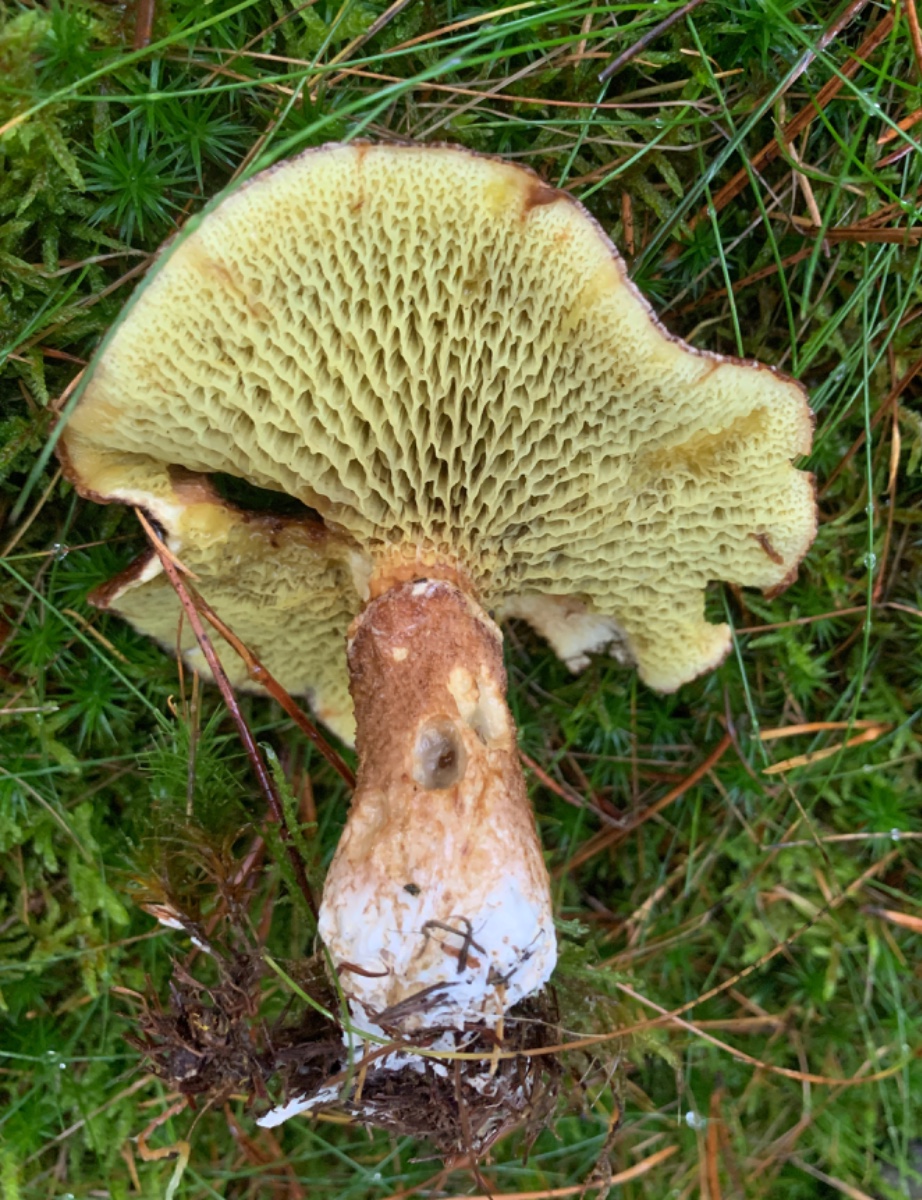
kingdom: Fungi
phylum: Basidiomycota
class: Agaricomycetes
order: Boletales
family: Suillaceae
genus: Suillus
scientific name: Suillus cavipes
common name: hulstokket slimrørhat
